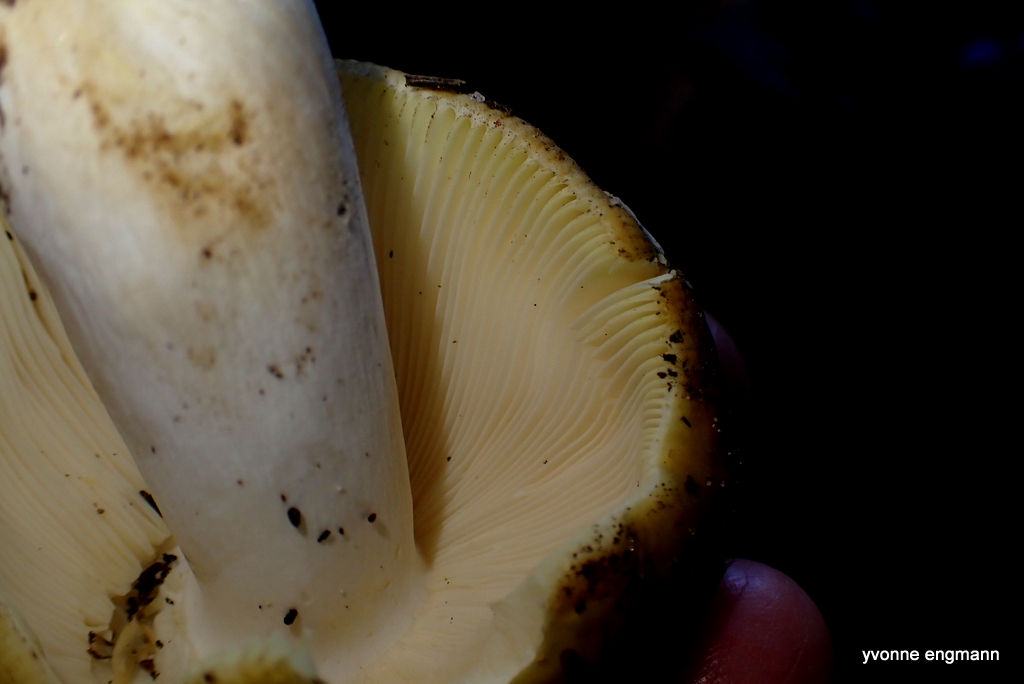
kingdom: Fungi
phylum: Basidiomycota
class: Agaricomycetes
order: Russulales
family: Russulaceae
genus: Russula
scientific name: Russula
